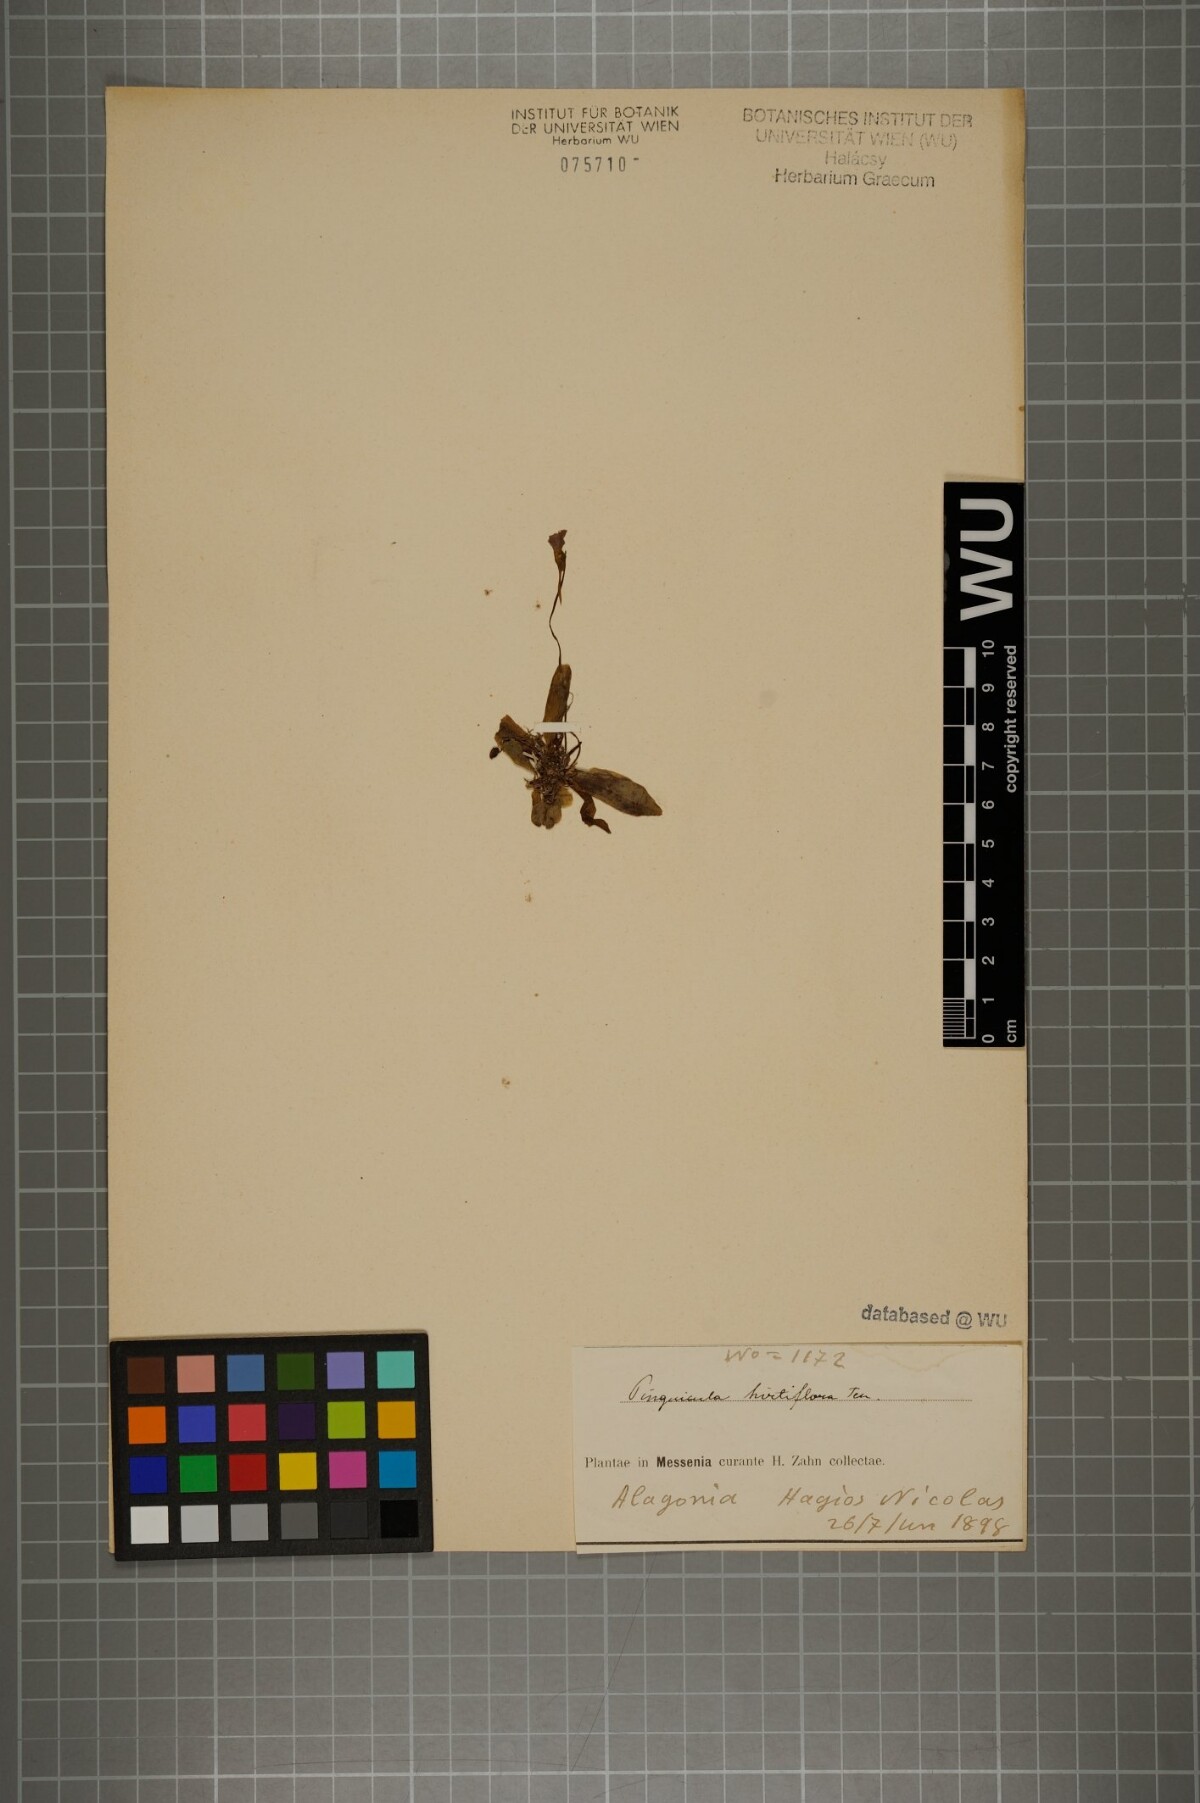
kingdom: Plantae
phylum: Tracheophyta
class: Magnoliopsida
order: Lamiales
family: Lentibulariaceae
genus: Pinguicula
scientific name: Pinguicula crystallina
